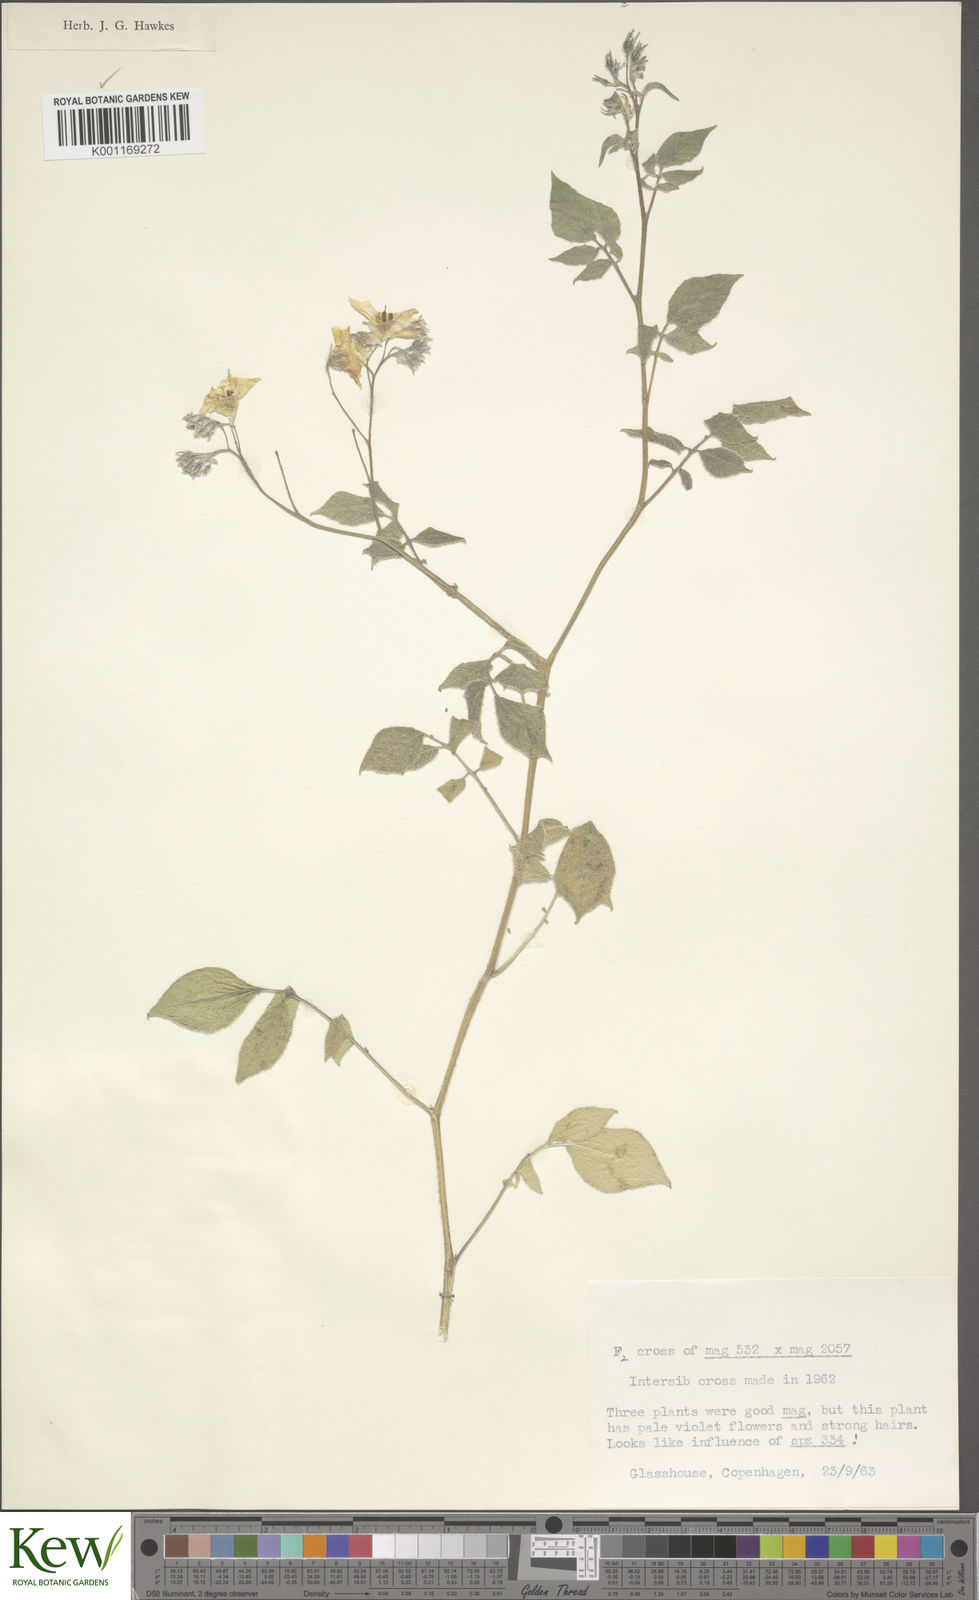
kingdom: Plantae
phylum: Tracheophyta
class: Magnoliopsida
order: Solanales
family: Solanaceae
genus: Solanum
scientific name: Solanum maglia
